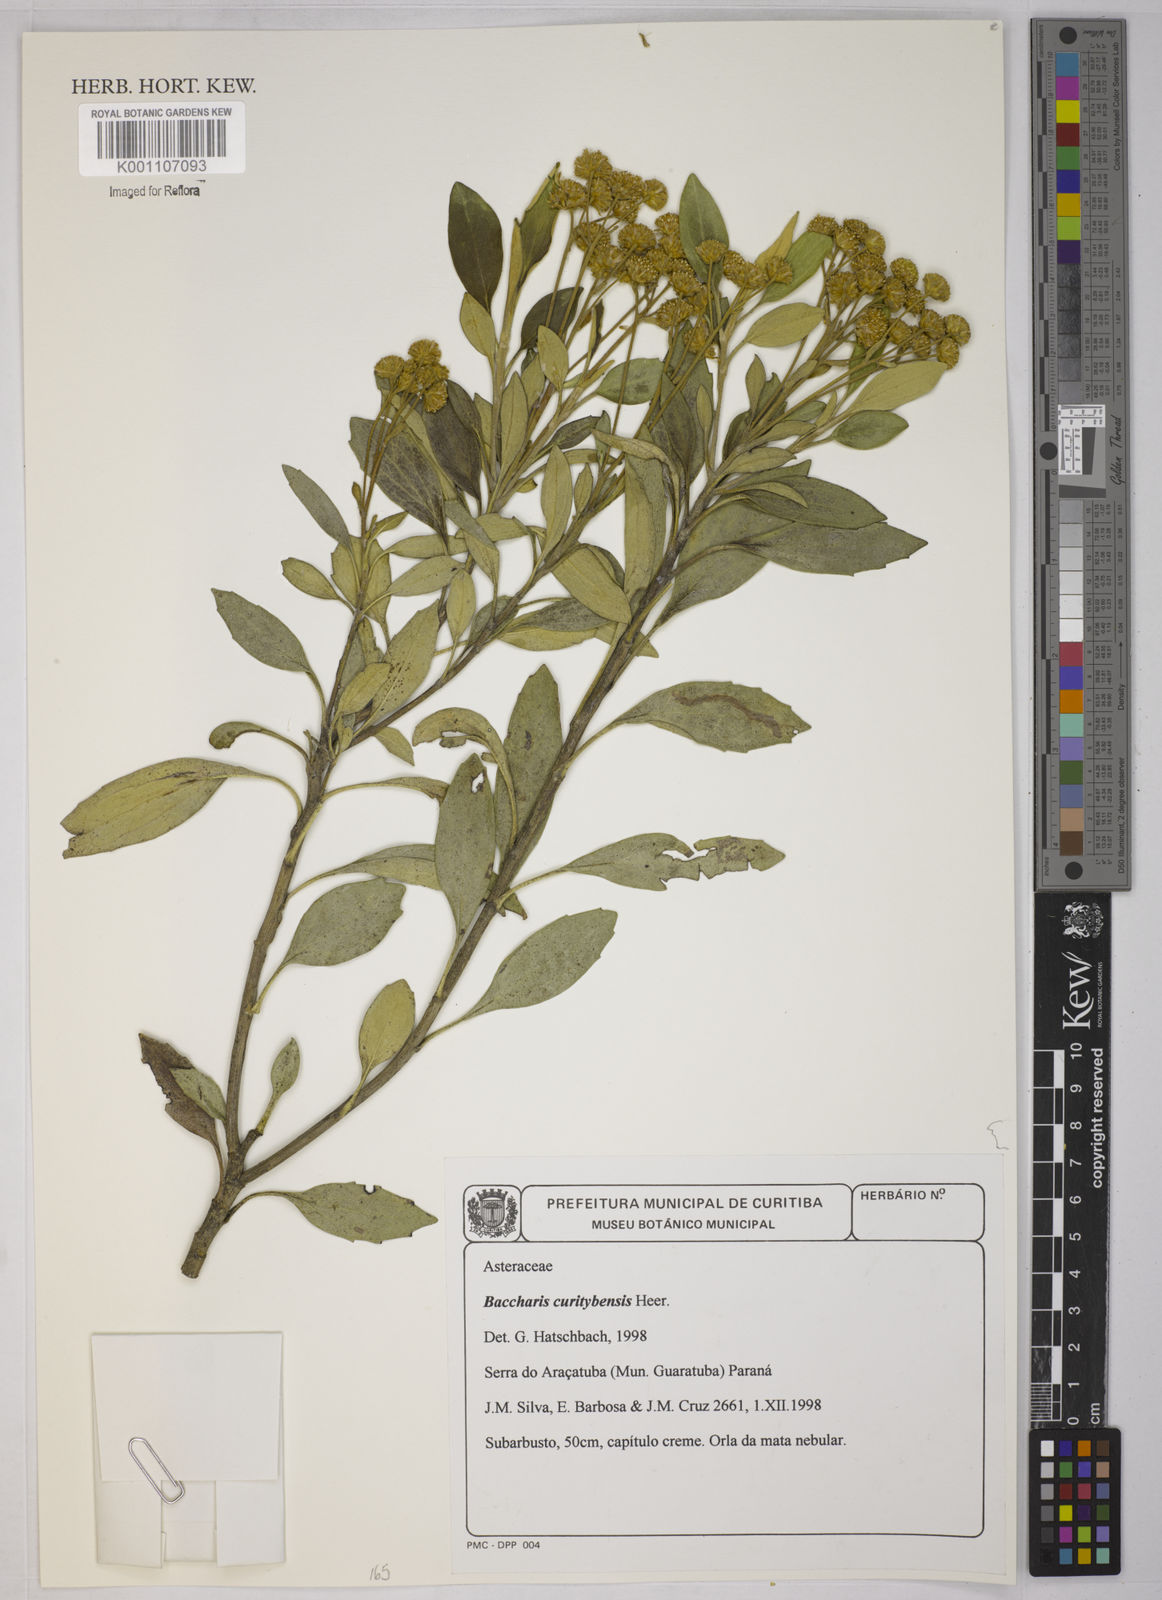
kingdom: Plantae
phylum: Tracheophyta
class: Magnoliopsida
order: Asterales
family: Asteraceae
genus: Baccharis
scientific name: Baccharis curitybensis
